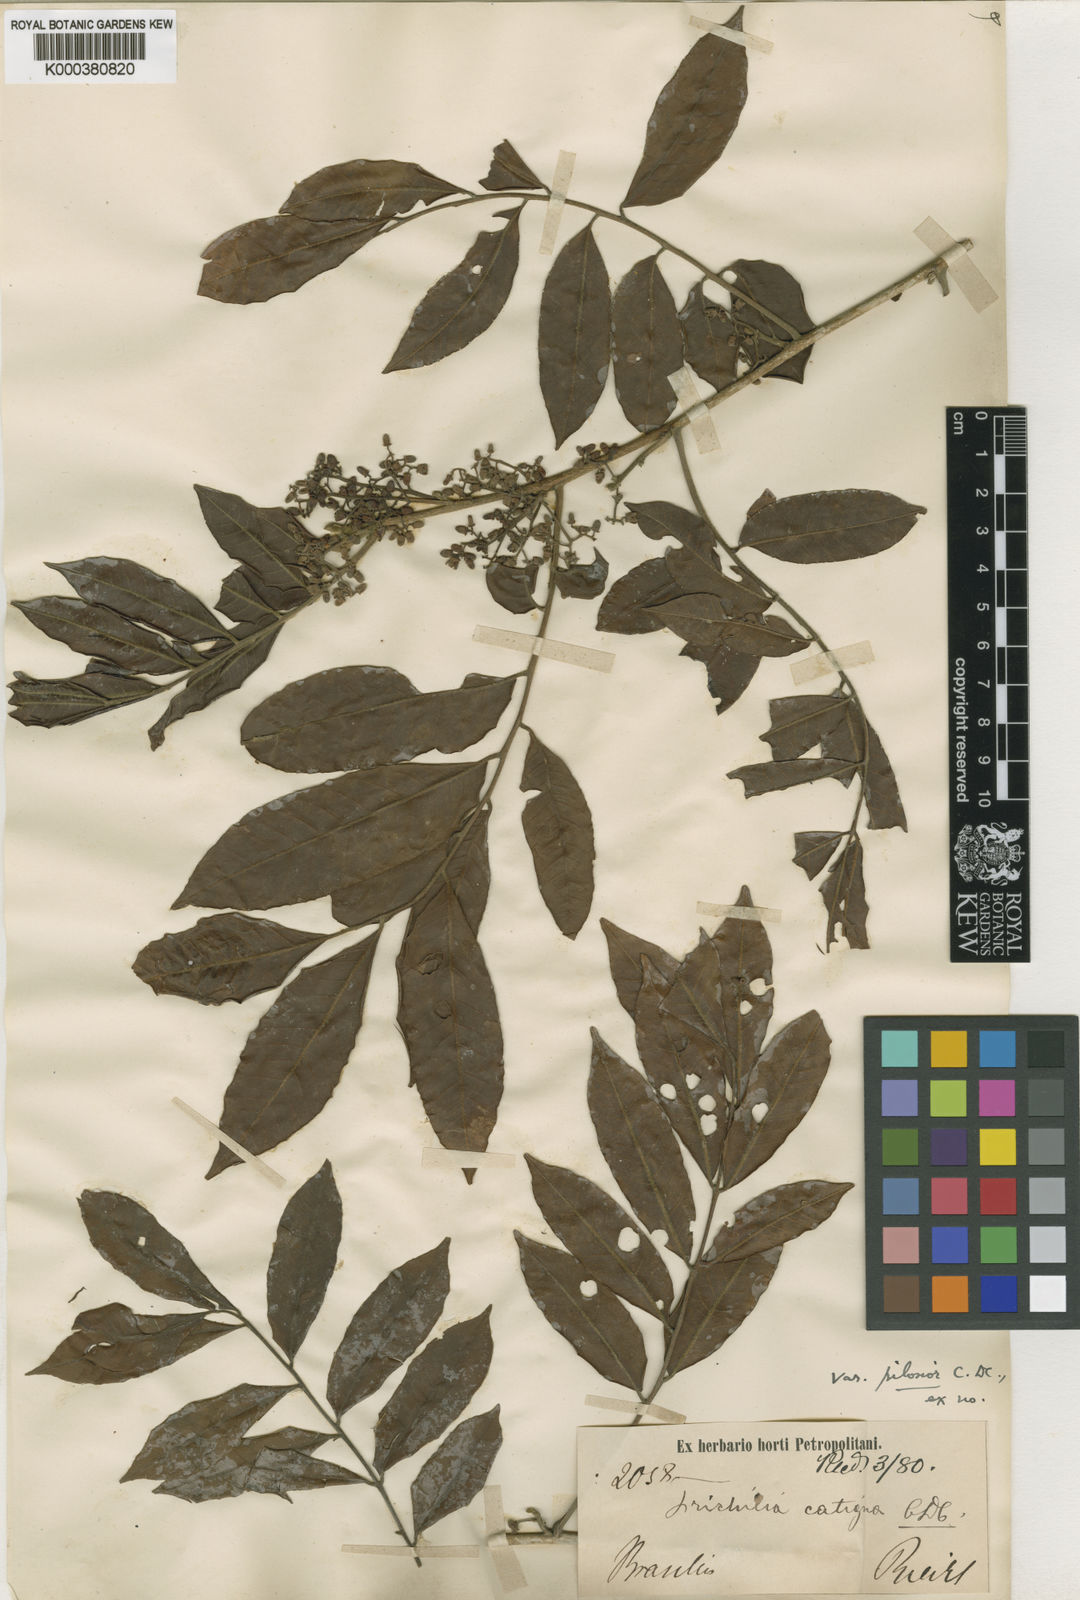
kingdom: Plantae
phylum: Tracheophyta
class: Magnoliopsida
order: Sapindales
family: Meliaceae
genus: Trichilia
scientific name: Trichilia catigua
